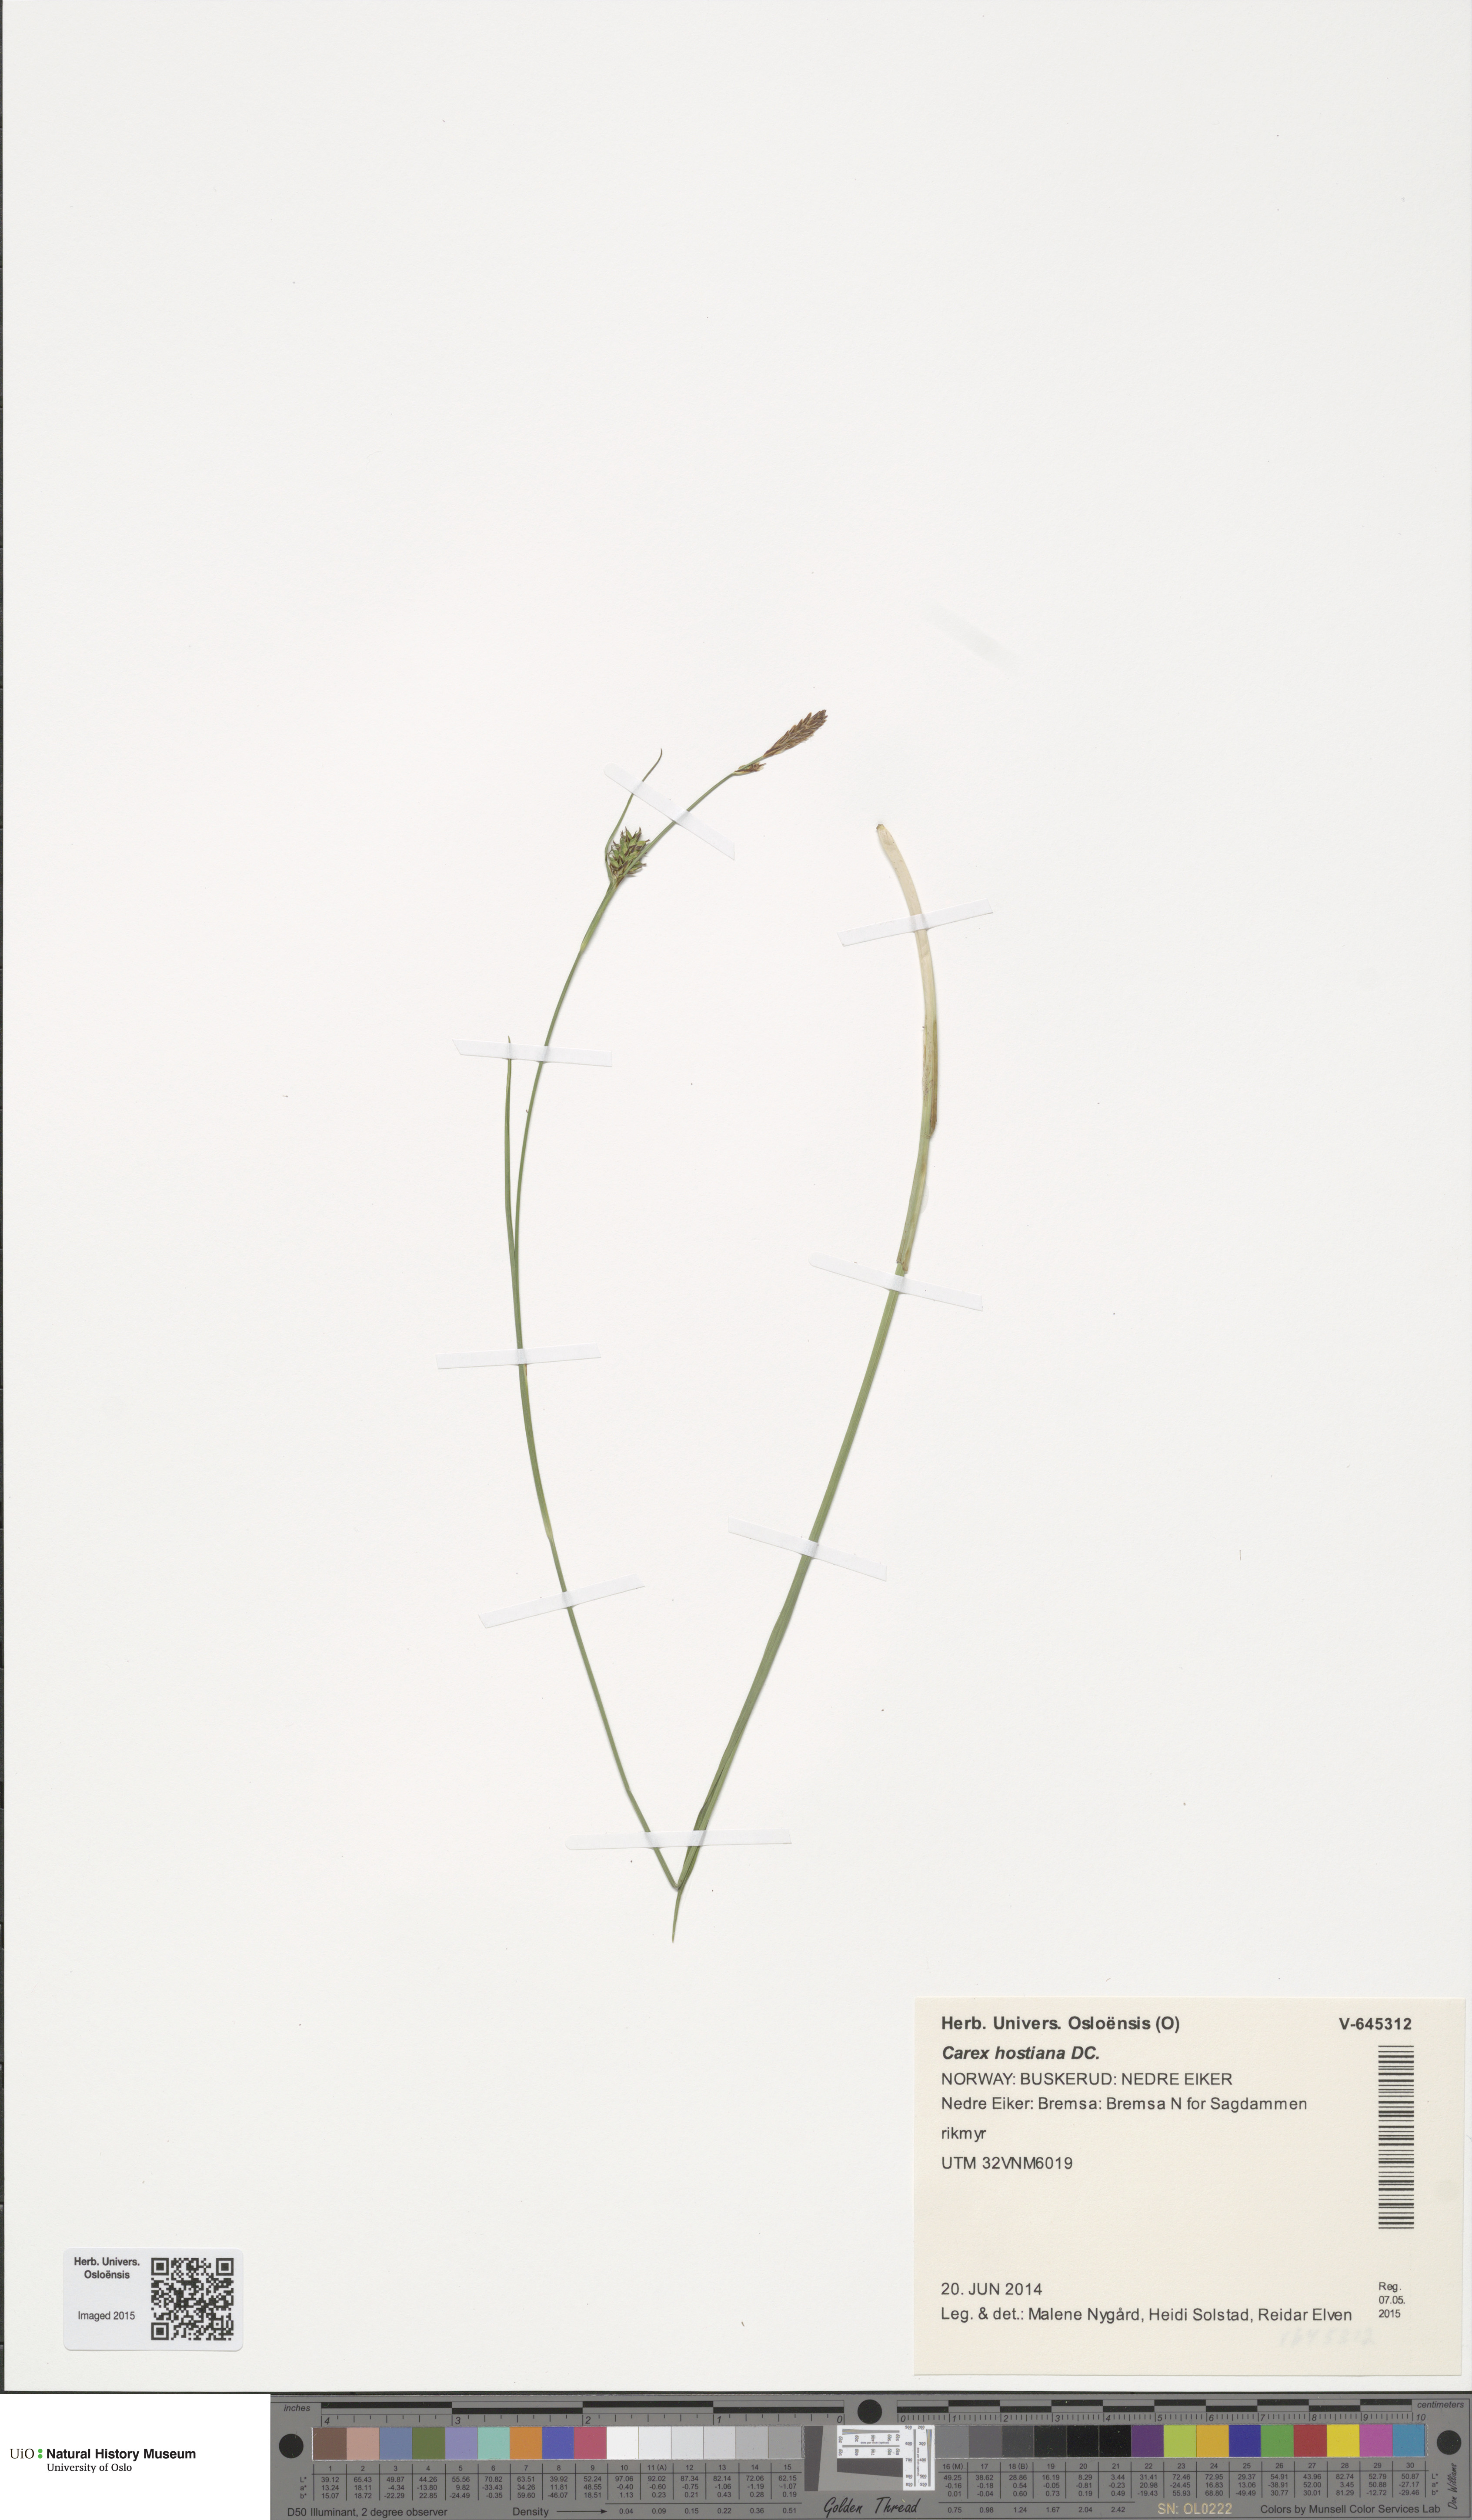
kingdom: Plantae
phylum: Tracheophyta
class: Liliopsida
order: Poales
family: Cyperaceae
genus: Carex
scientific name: Carex hostiana
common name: Tawny sedge
